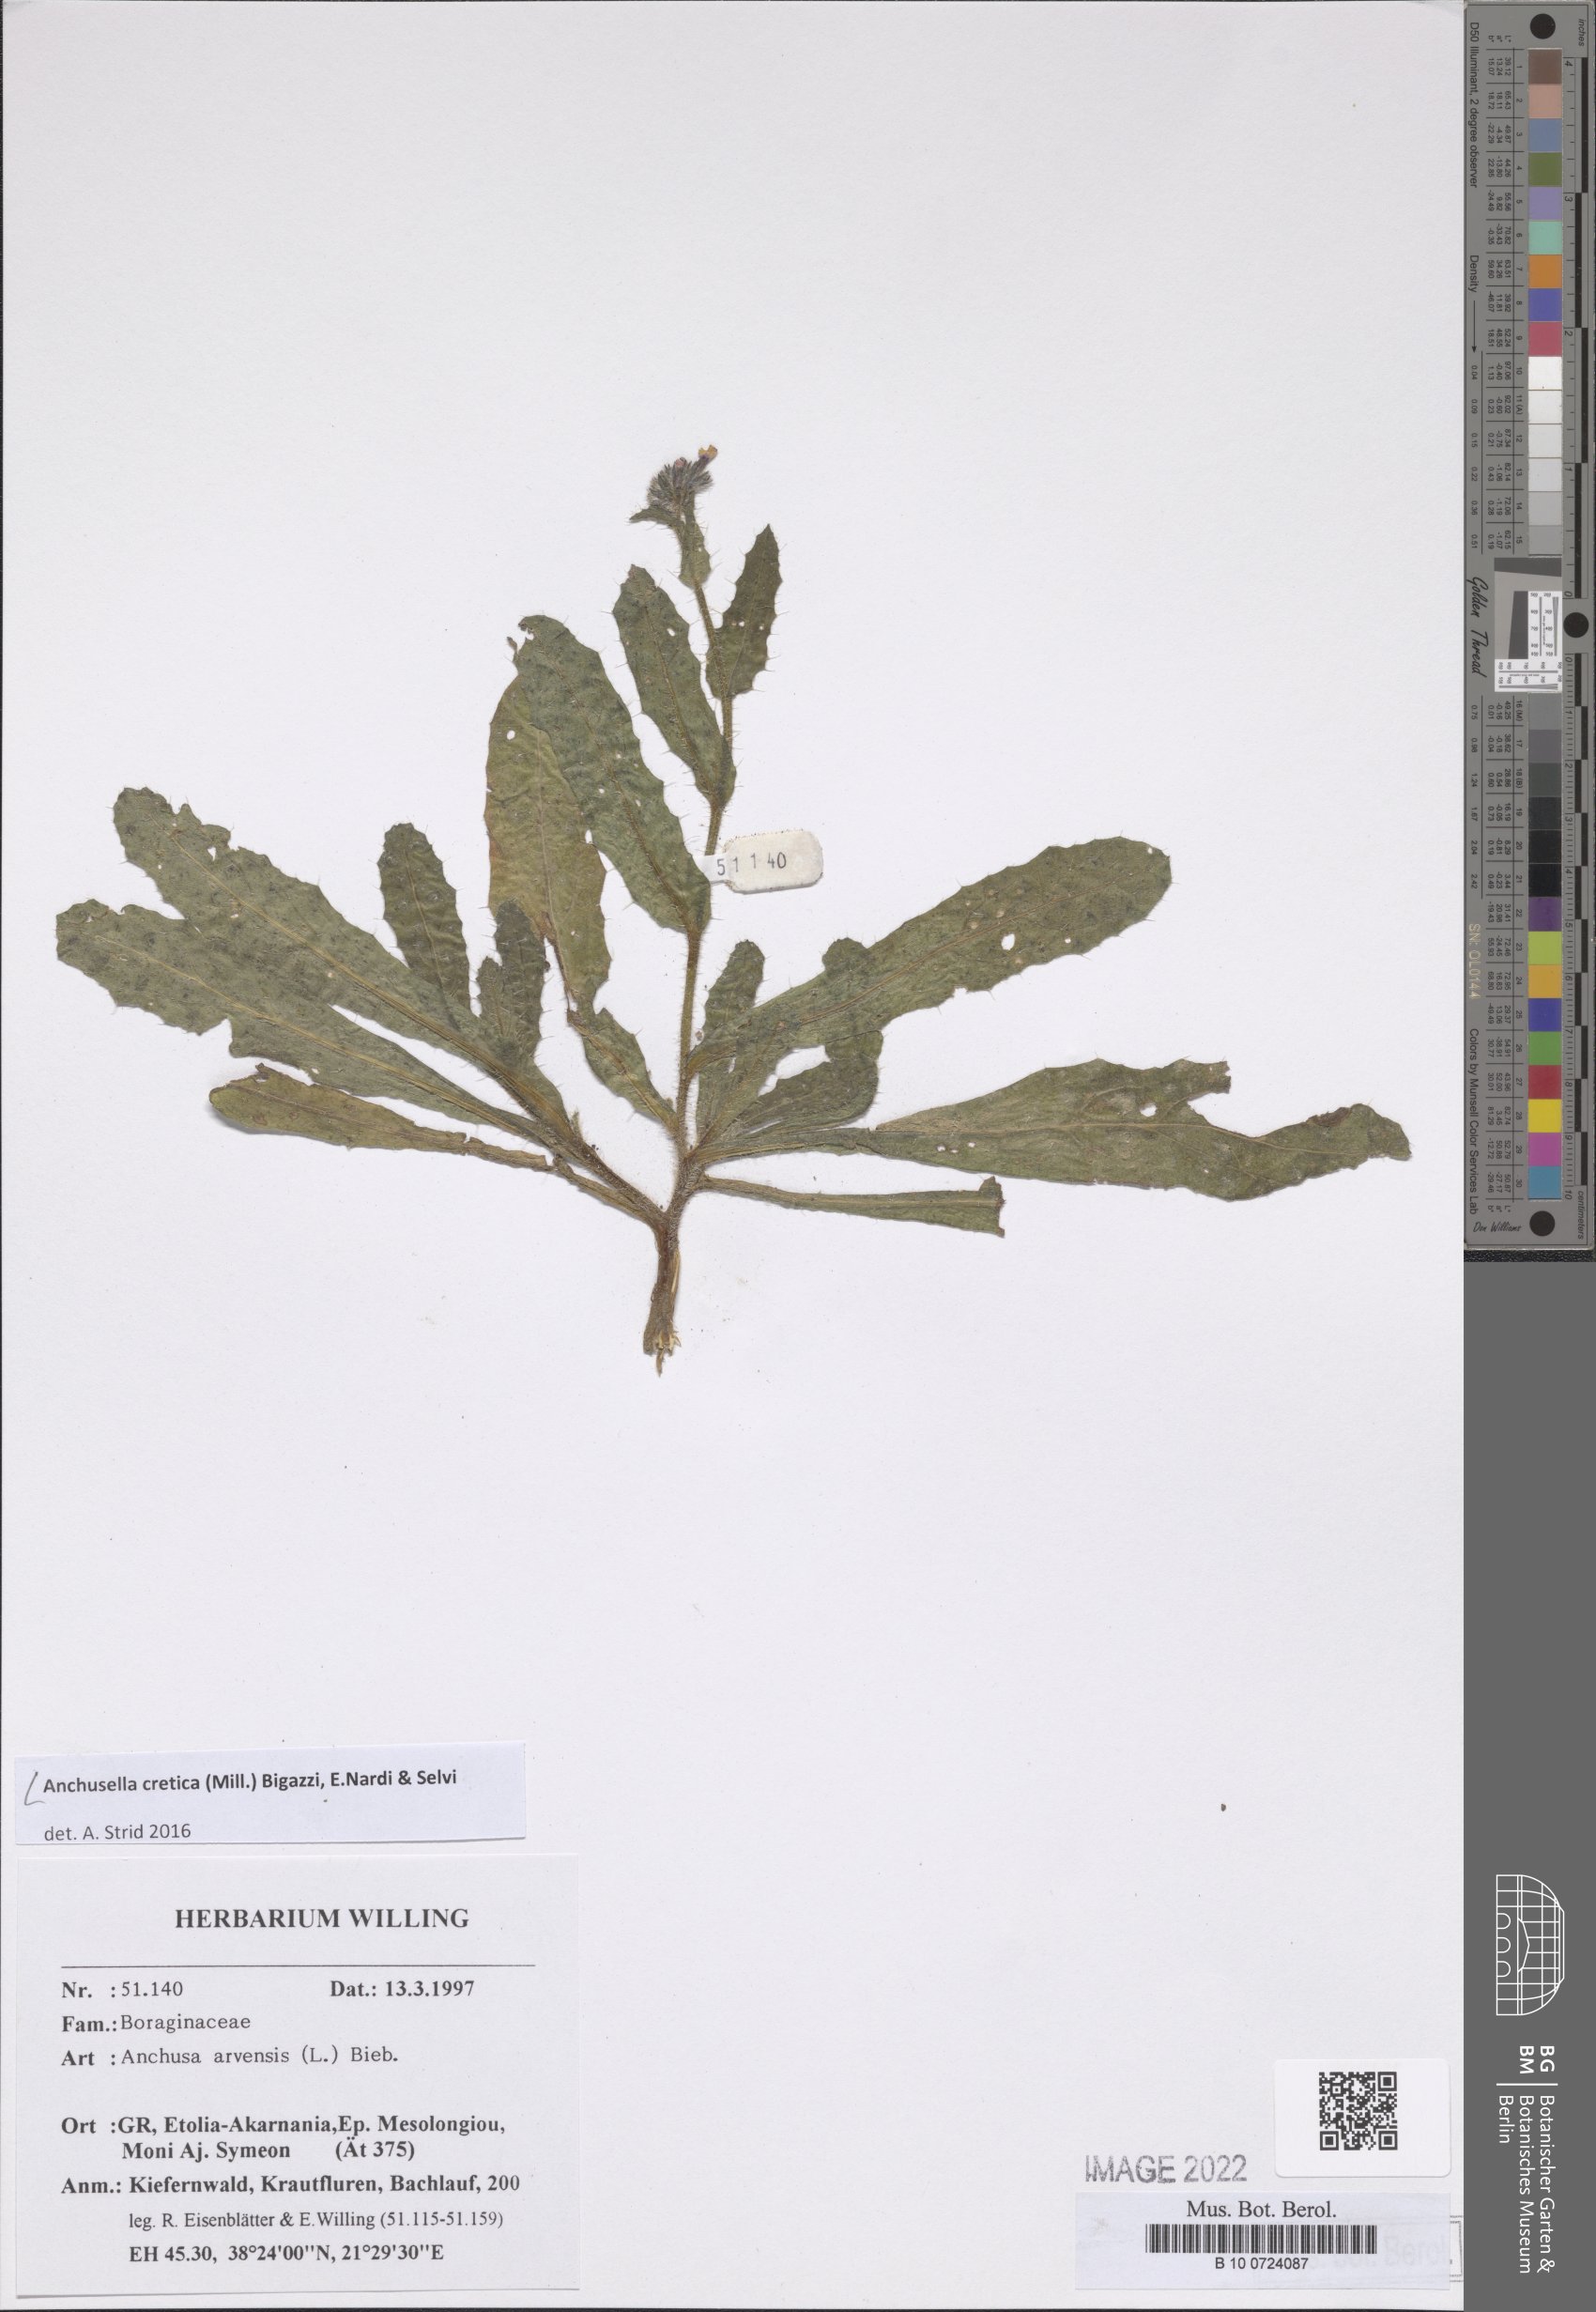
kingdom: Plantae
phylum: Tracheophyta
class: Magnoliopsida
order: Boraginales
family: Boraginaceae
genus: Anchusella
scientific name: Anchusella cretica
